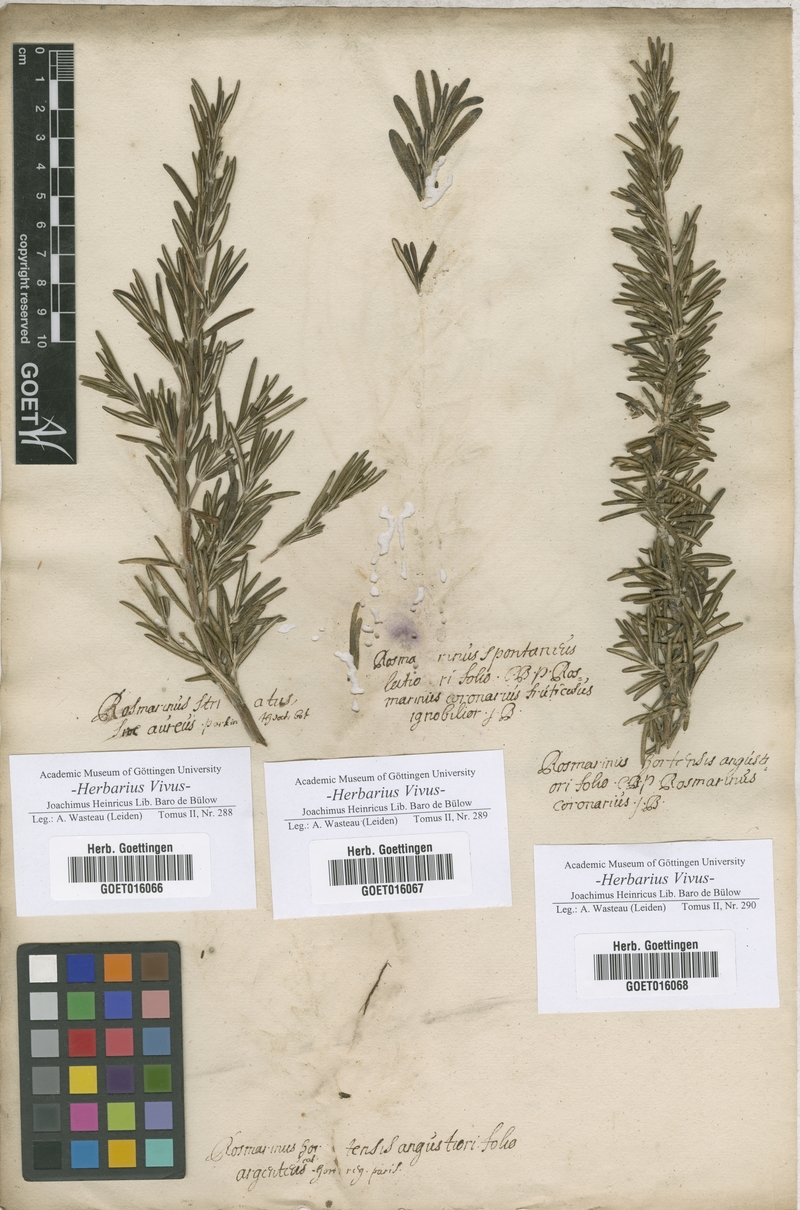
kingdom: Plantae
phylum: Tracheophyta
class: Magnoliopsida
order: Lamiales
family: Lamiaceae
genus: Salvia
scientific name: Salvia
